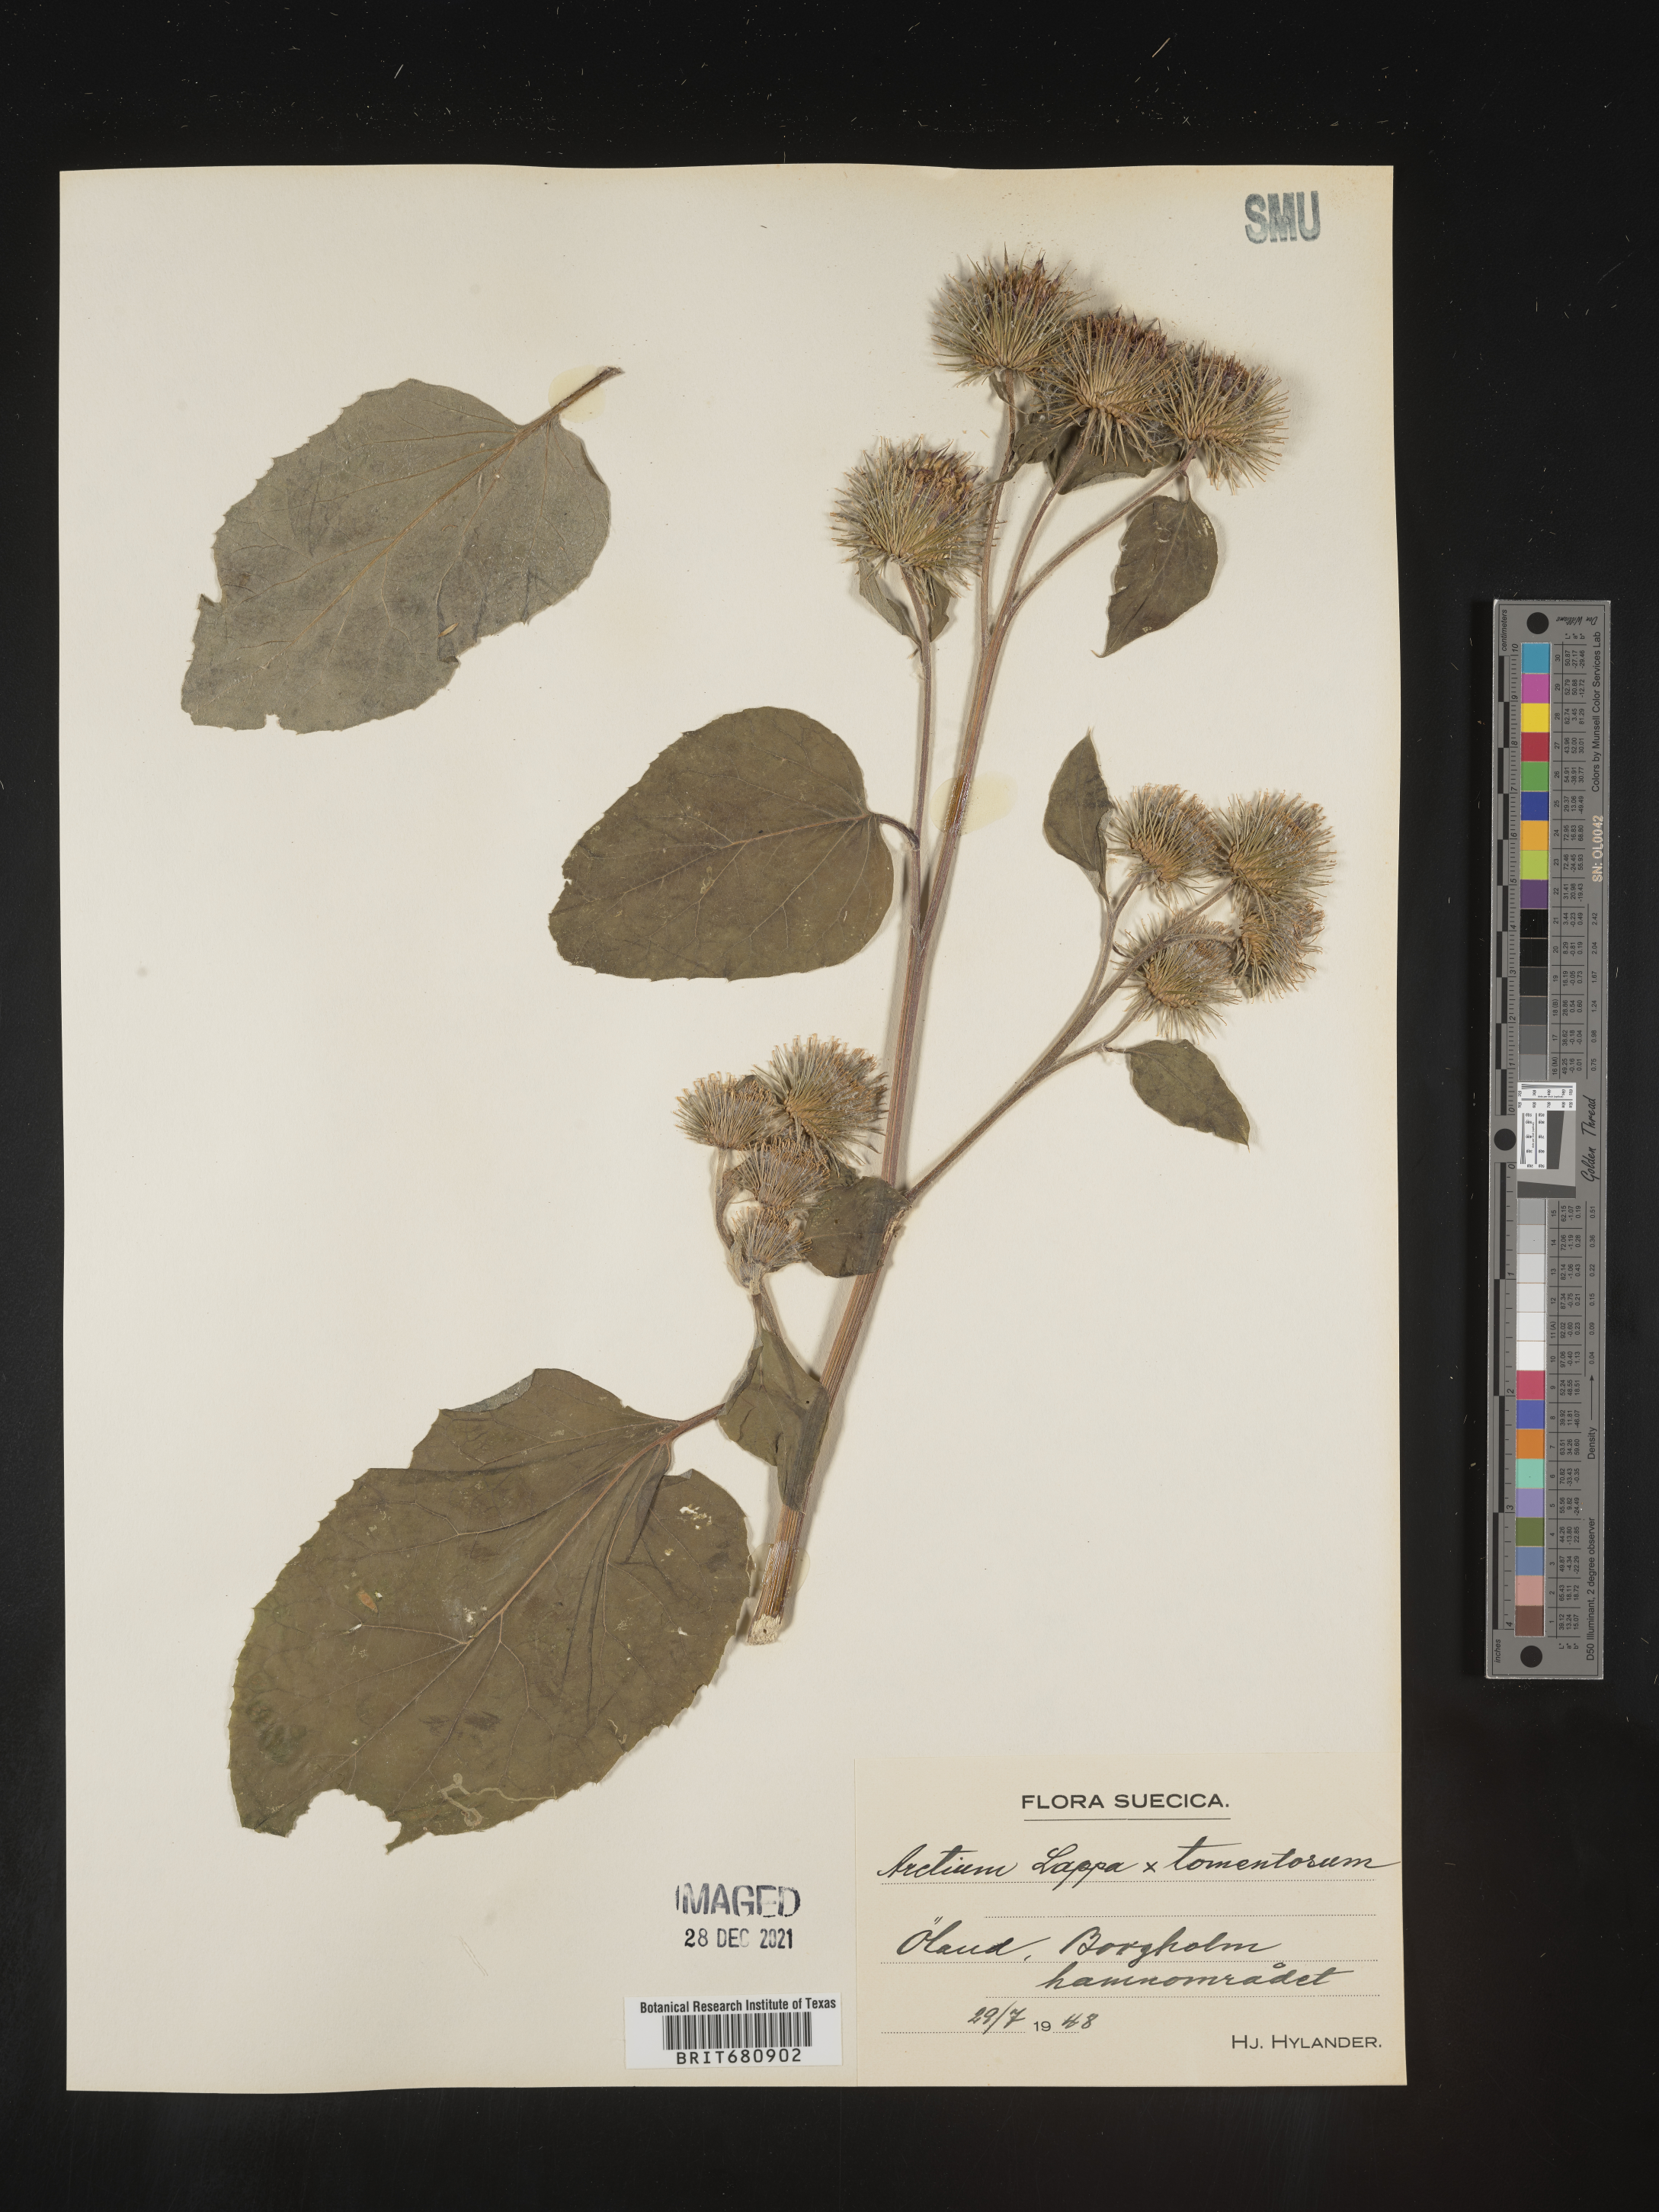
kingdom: Plantae
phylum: Tracheophyta
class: Magnoliopsida
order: Asterales
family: Asteraceae
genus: Arctium
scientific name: Arctium lappa
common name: Greater burdock
